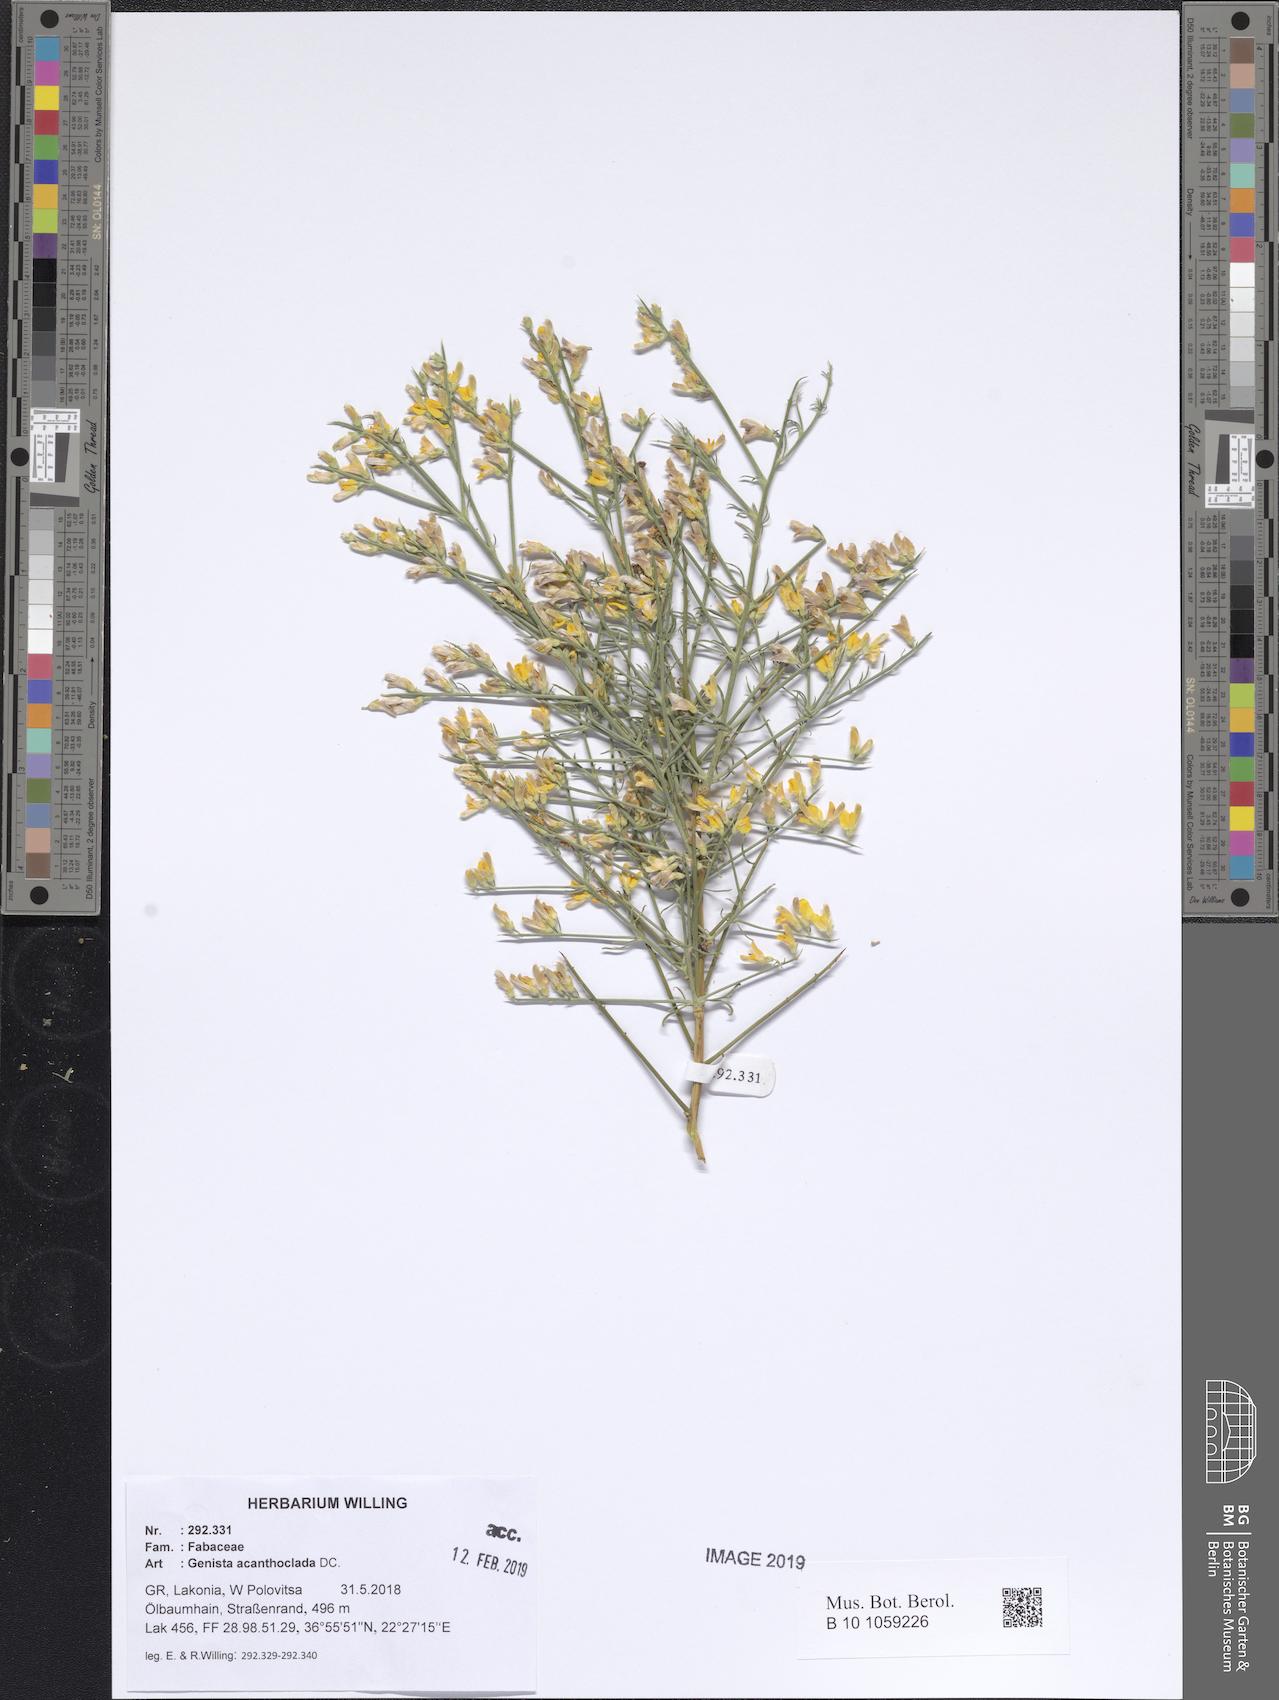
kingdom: Plantae
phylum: Tracheophyta
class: Magnoliopsida
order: Fabales
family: Fabaceae
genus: Genista
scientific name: Genista acanthoclada
